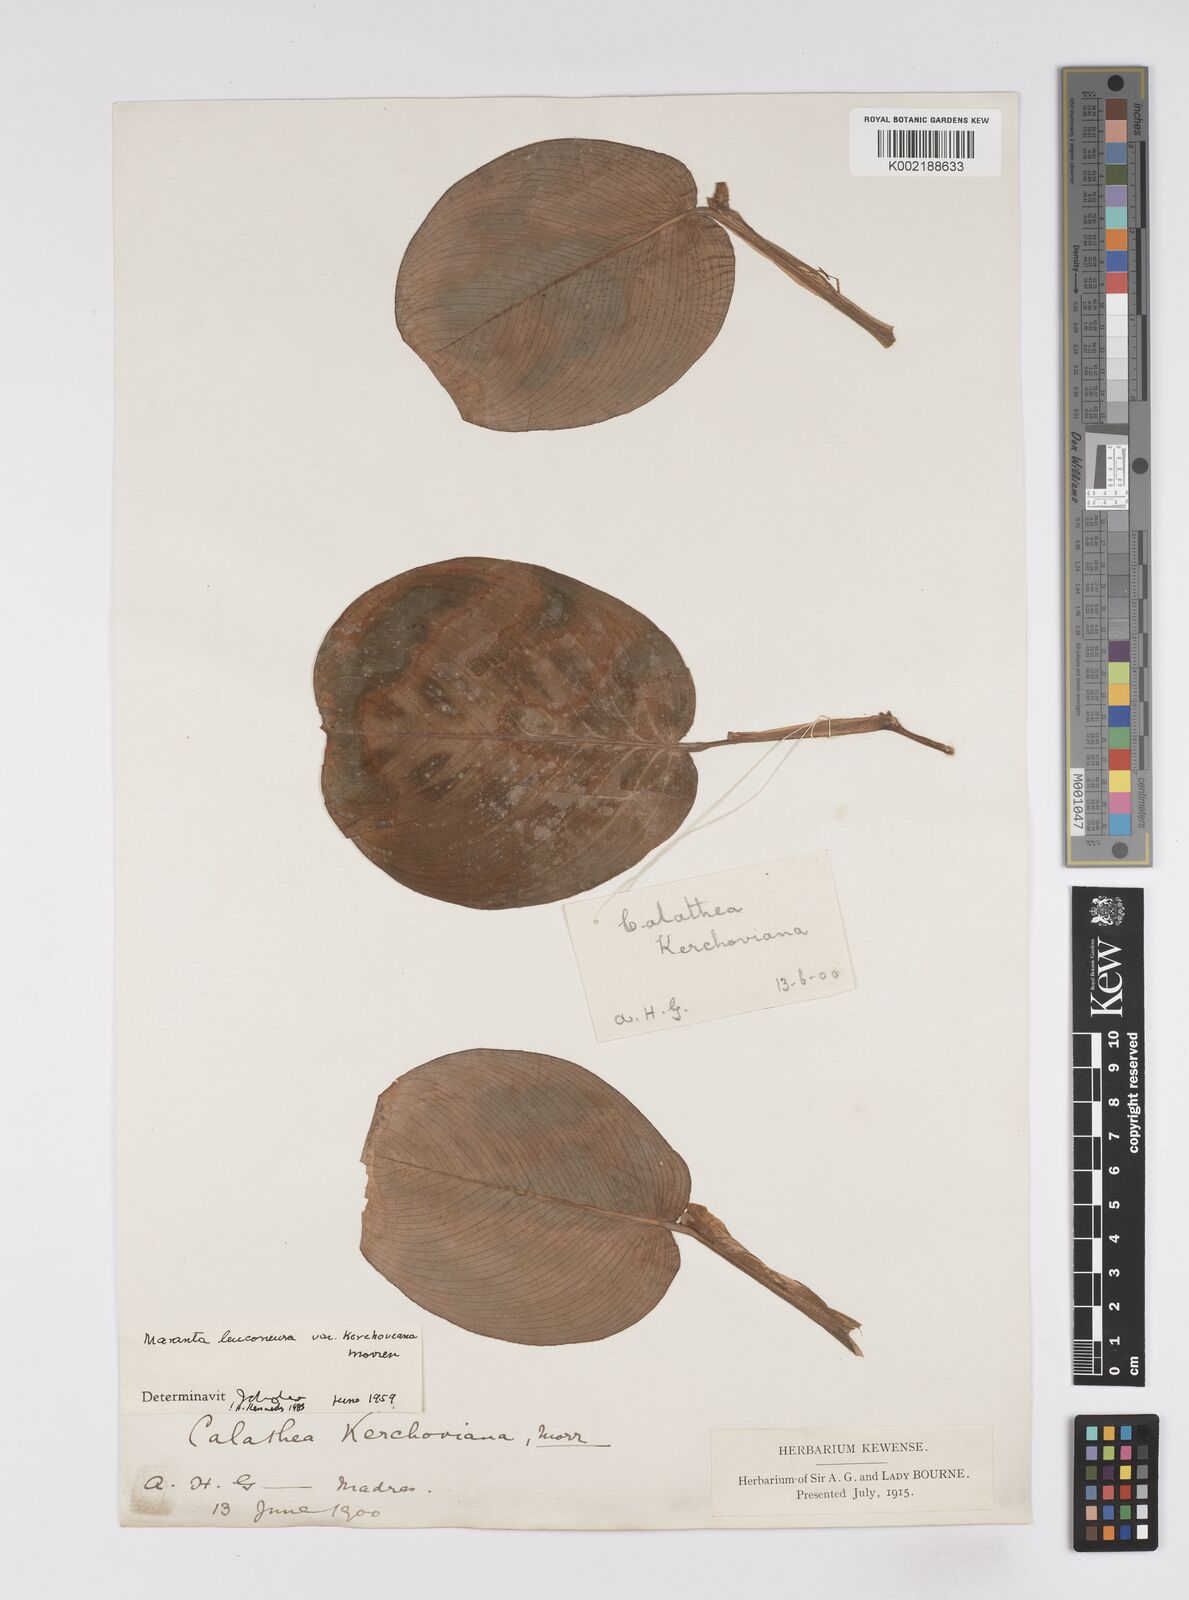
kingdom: Plantae
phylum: Tracheophyta
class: Liliopsida
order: Zingiberales
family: Marantaceae
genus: Maranta
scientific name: Maranta leuconeura
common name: Ten-commandments
